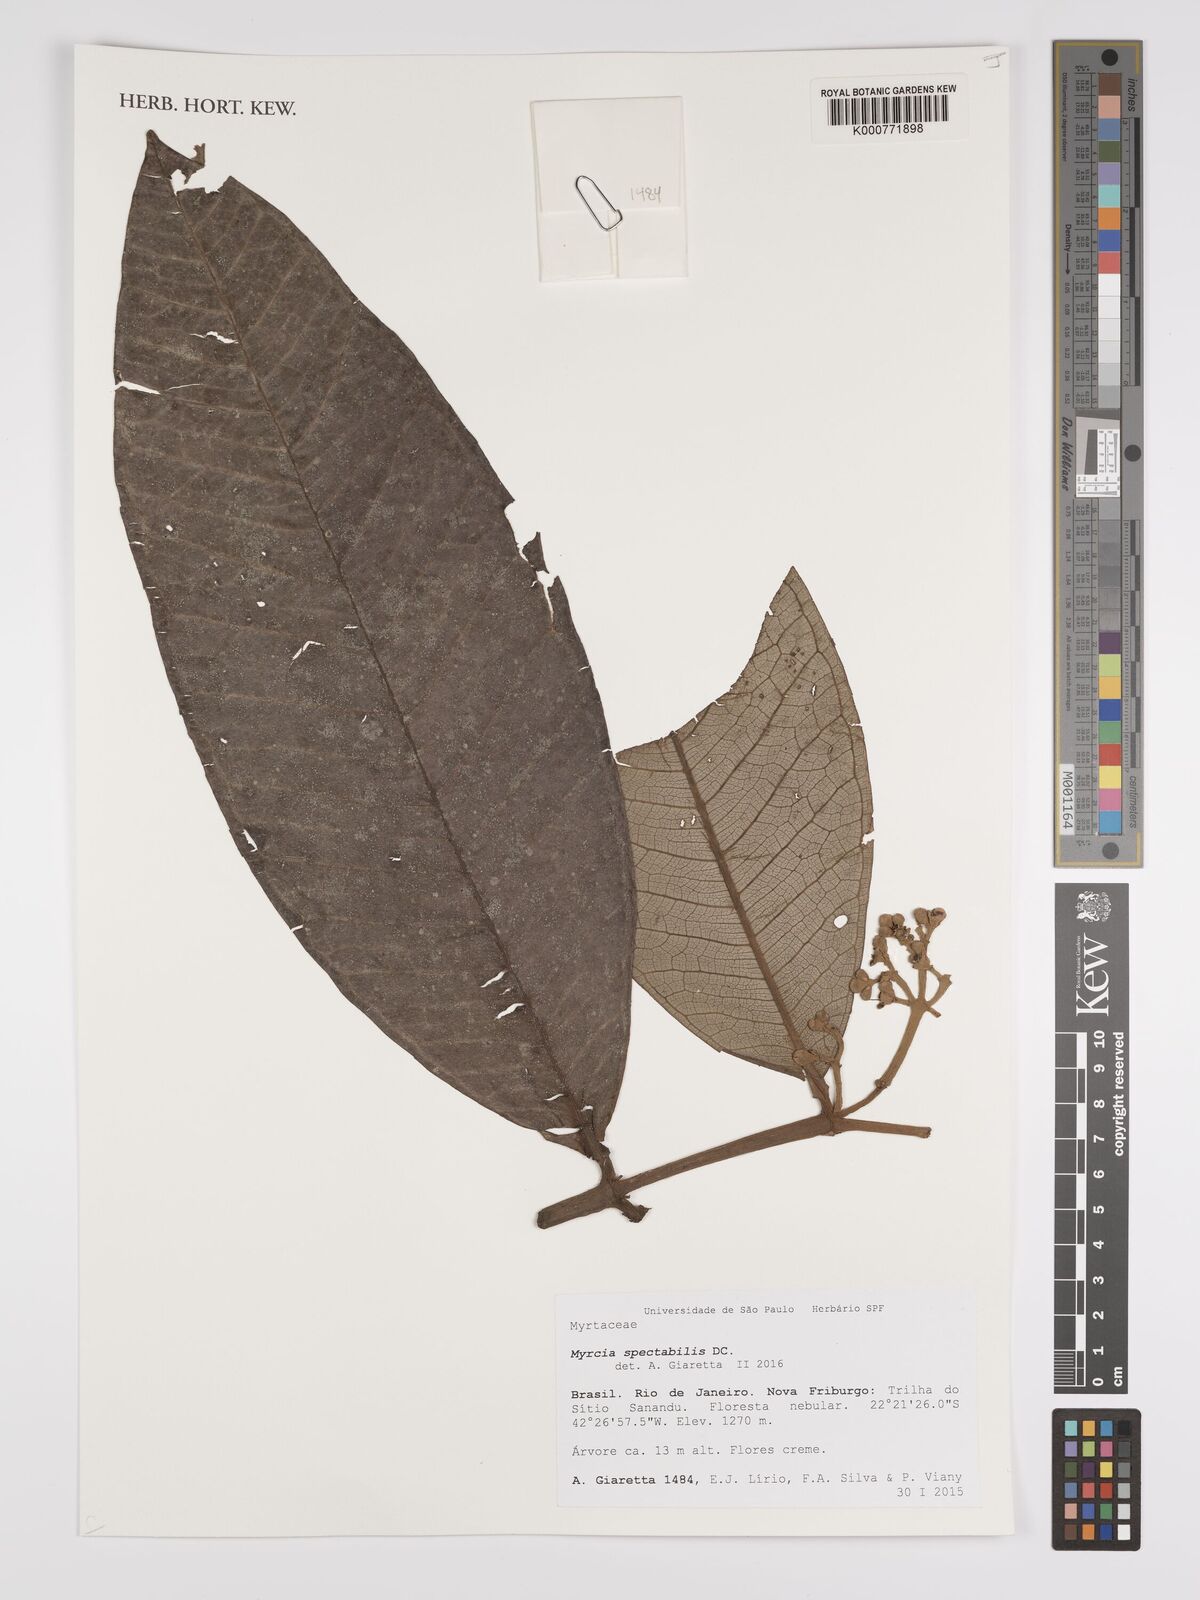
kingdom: Plantae
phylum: Tracheophyta
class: Magnoliopsida
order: Myrtales
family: Myrtaceae
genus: Myrcia
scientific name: Myrcia spectabilis
